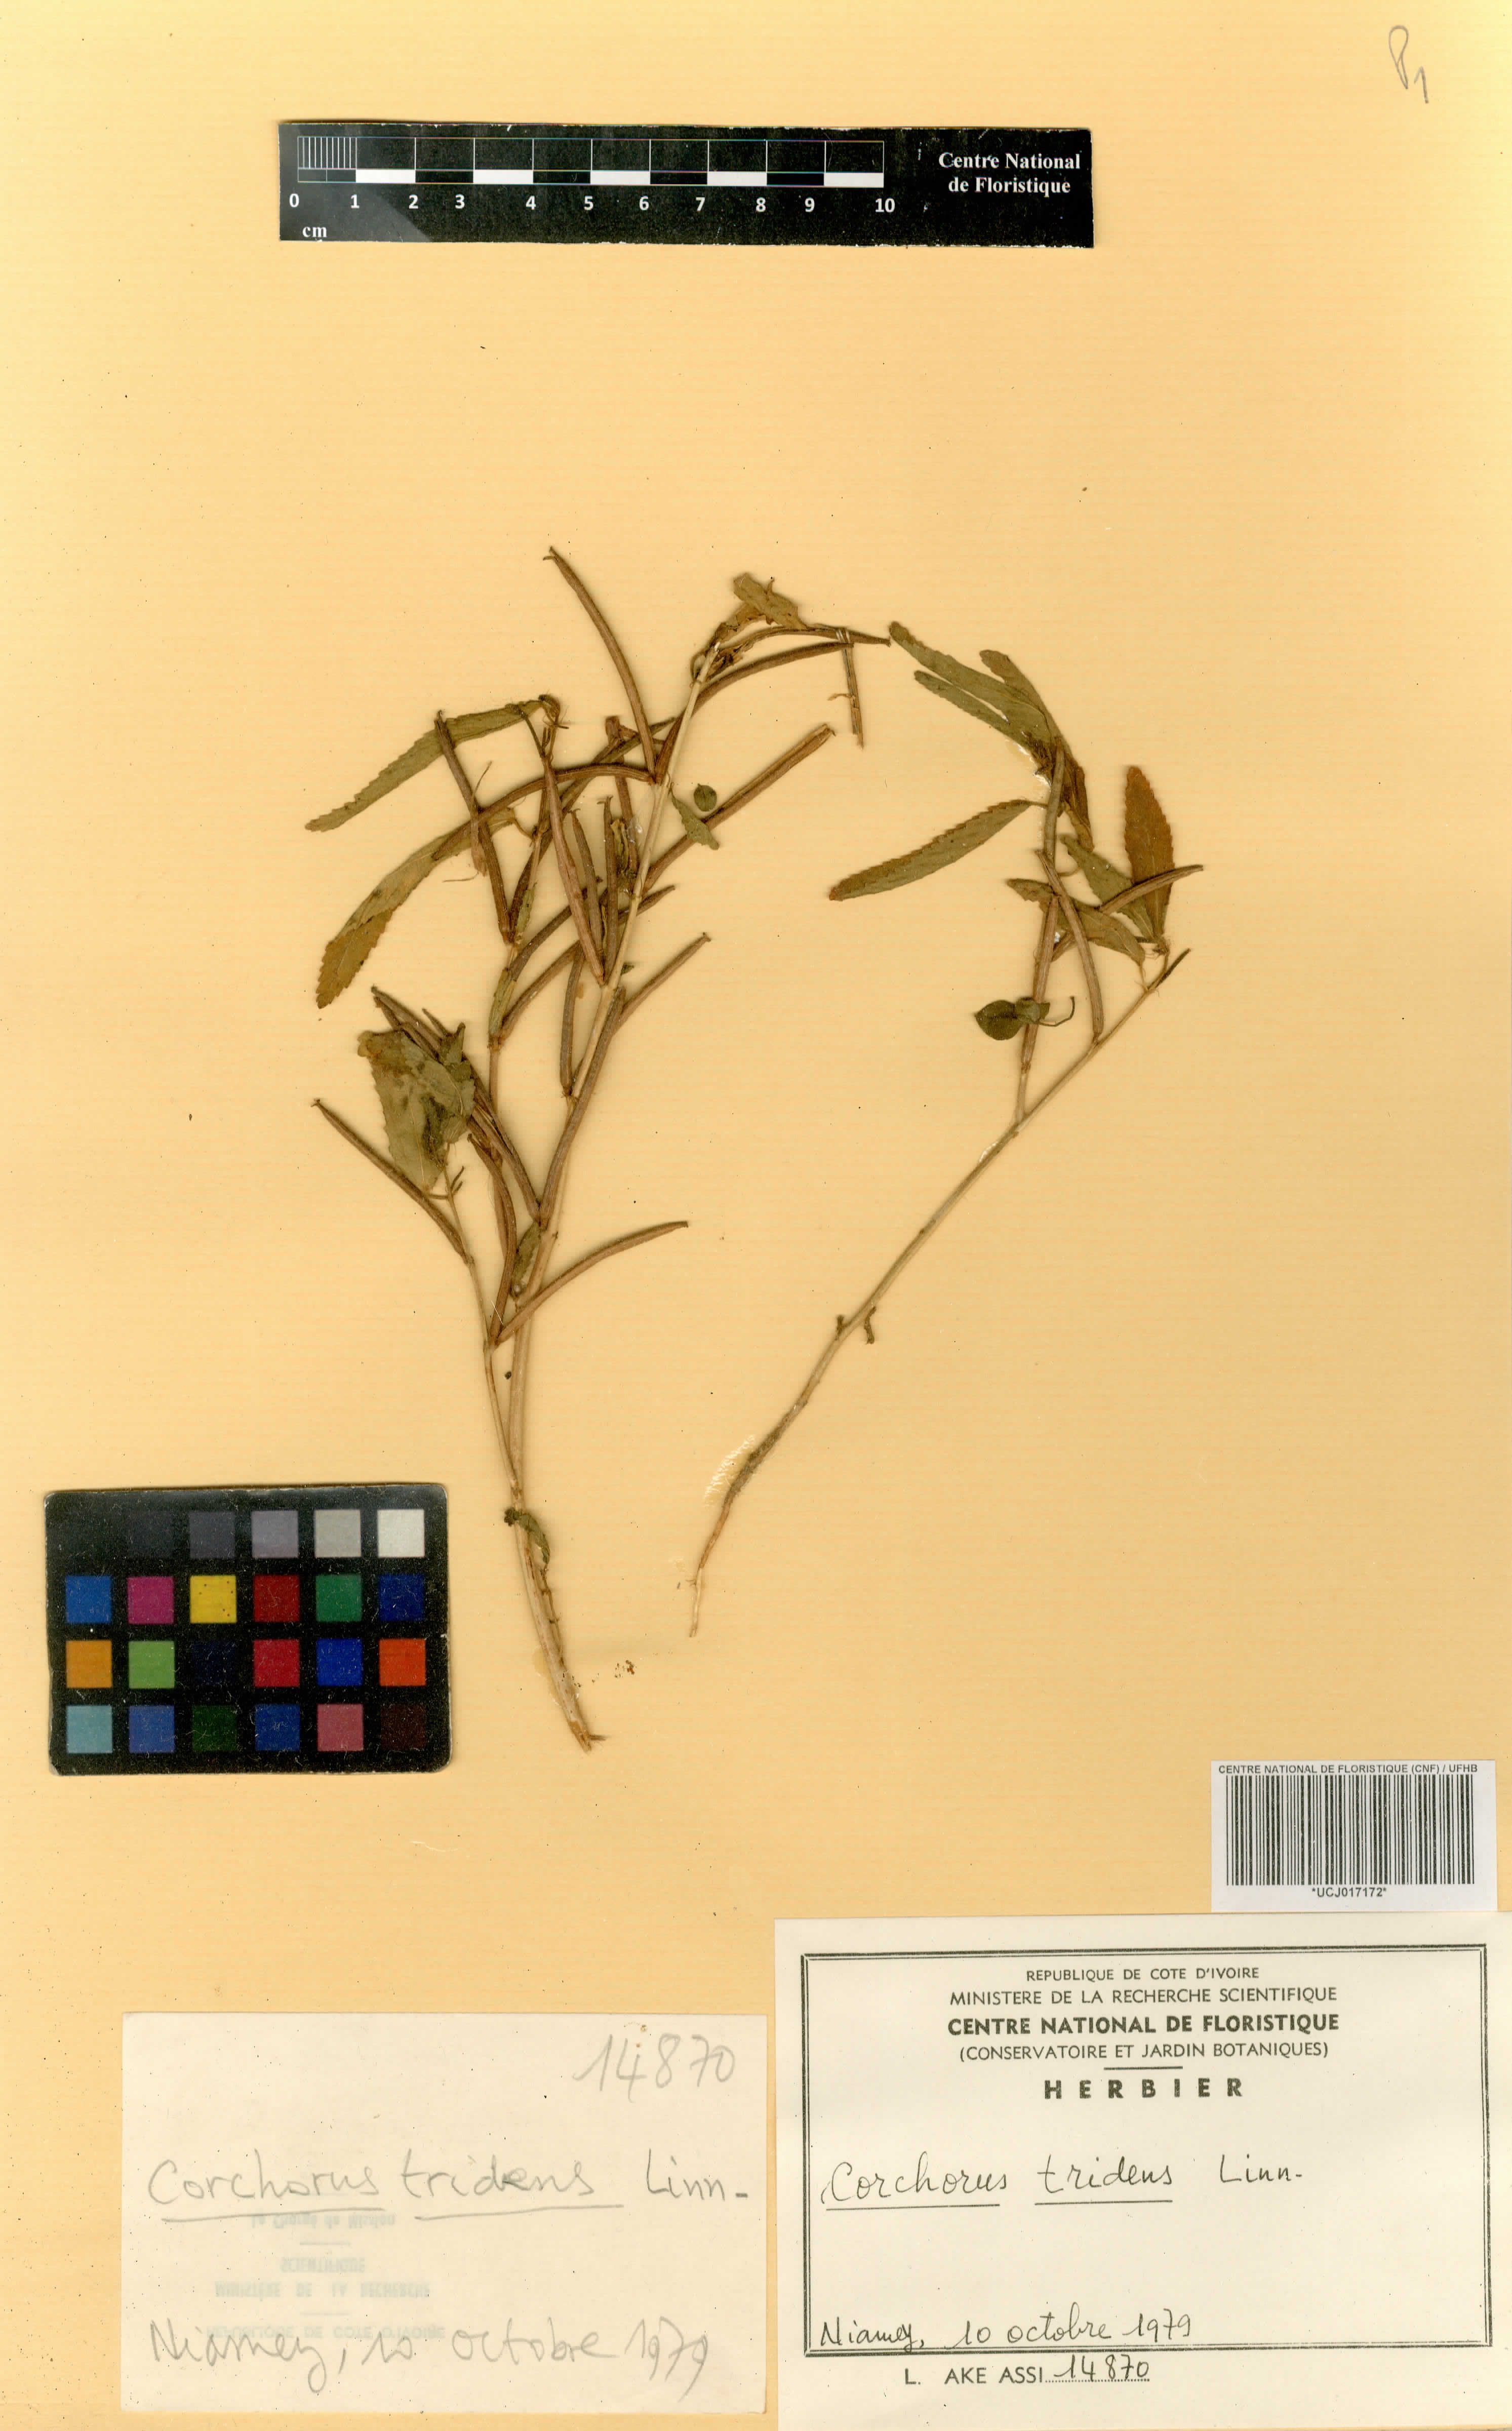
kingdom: Plantae
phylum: Tracheophyta
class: Magnoliopsida
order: Malvales
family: Malvaceae
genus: Corchorus
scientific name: Corchorus tridens
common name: Wild jute
